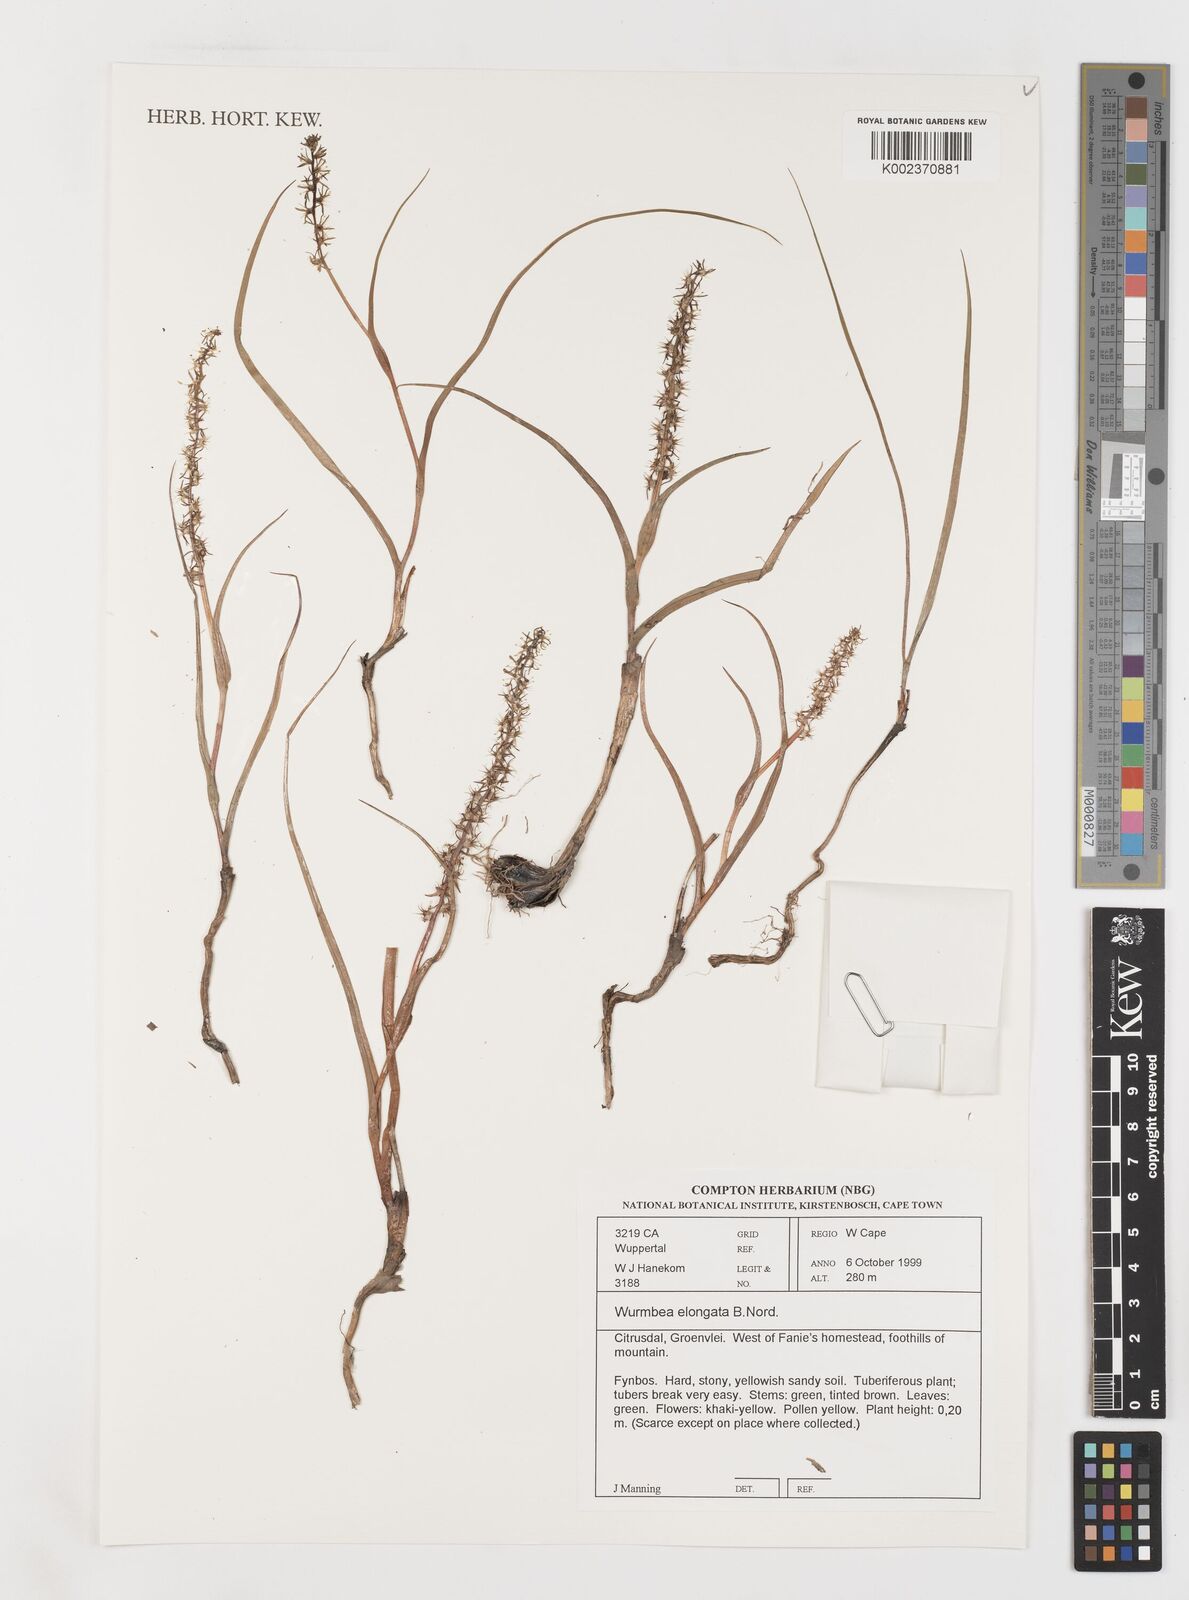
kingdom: Plantae
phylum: Tracheophyta
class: Liliopsida
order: Liliales
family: Colchicaceae
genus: Wurmbea
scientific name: Wurmbea elongata
